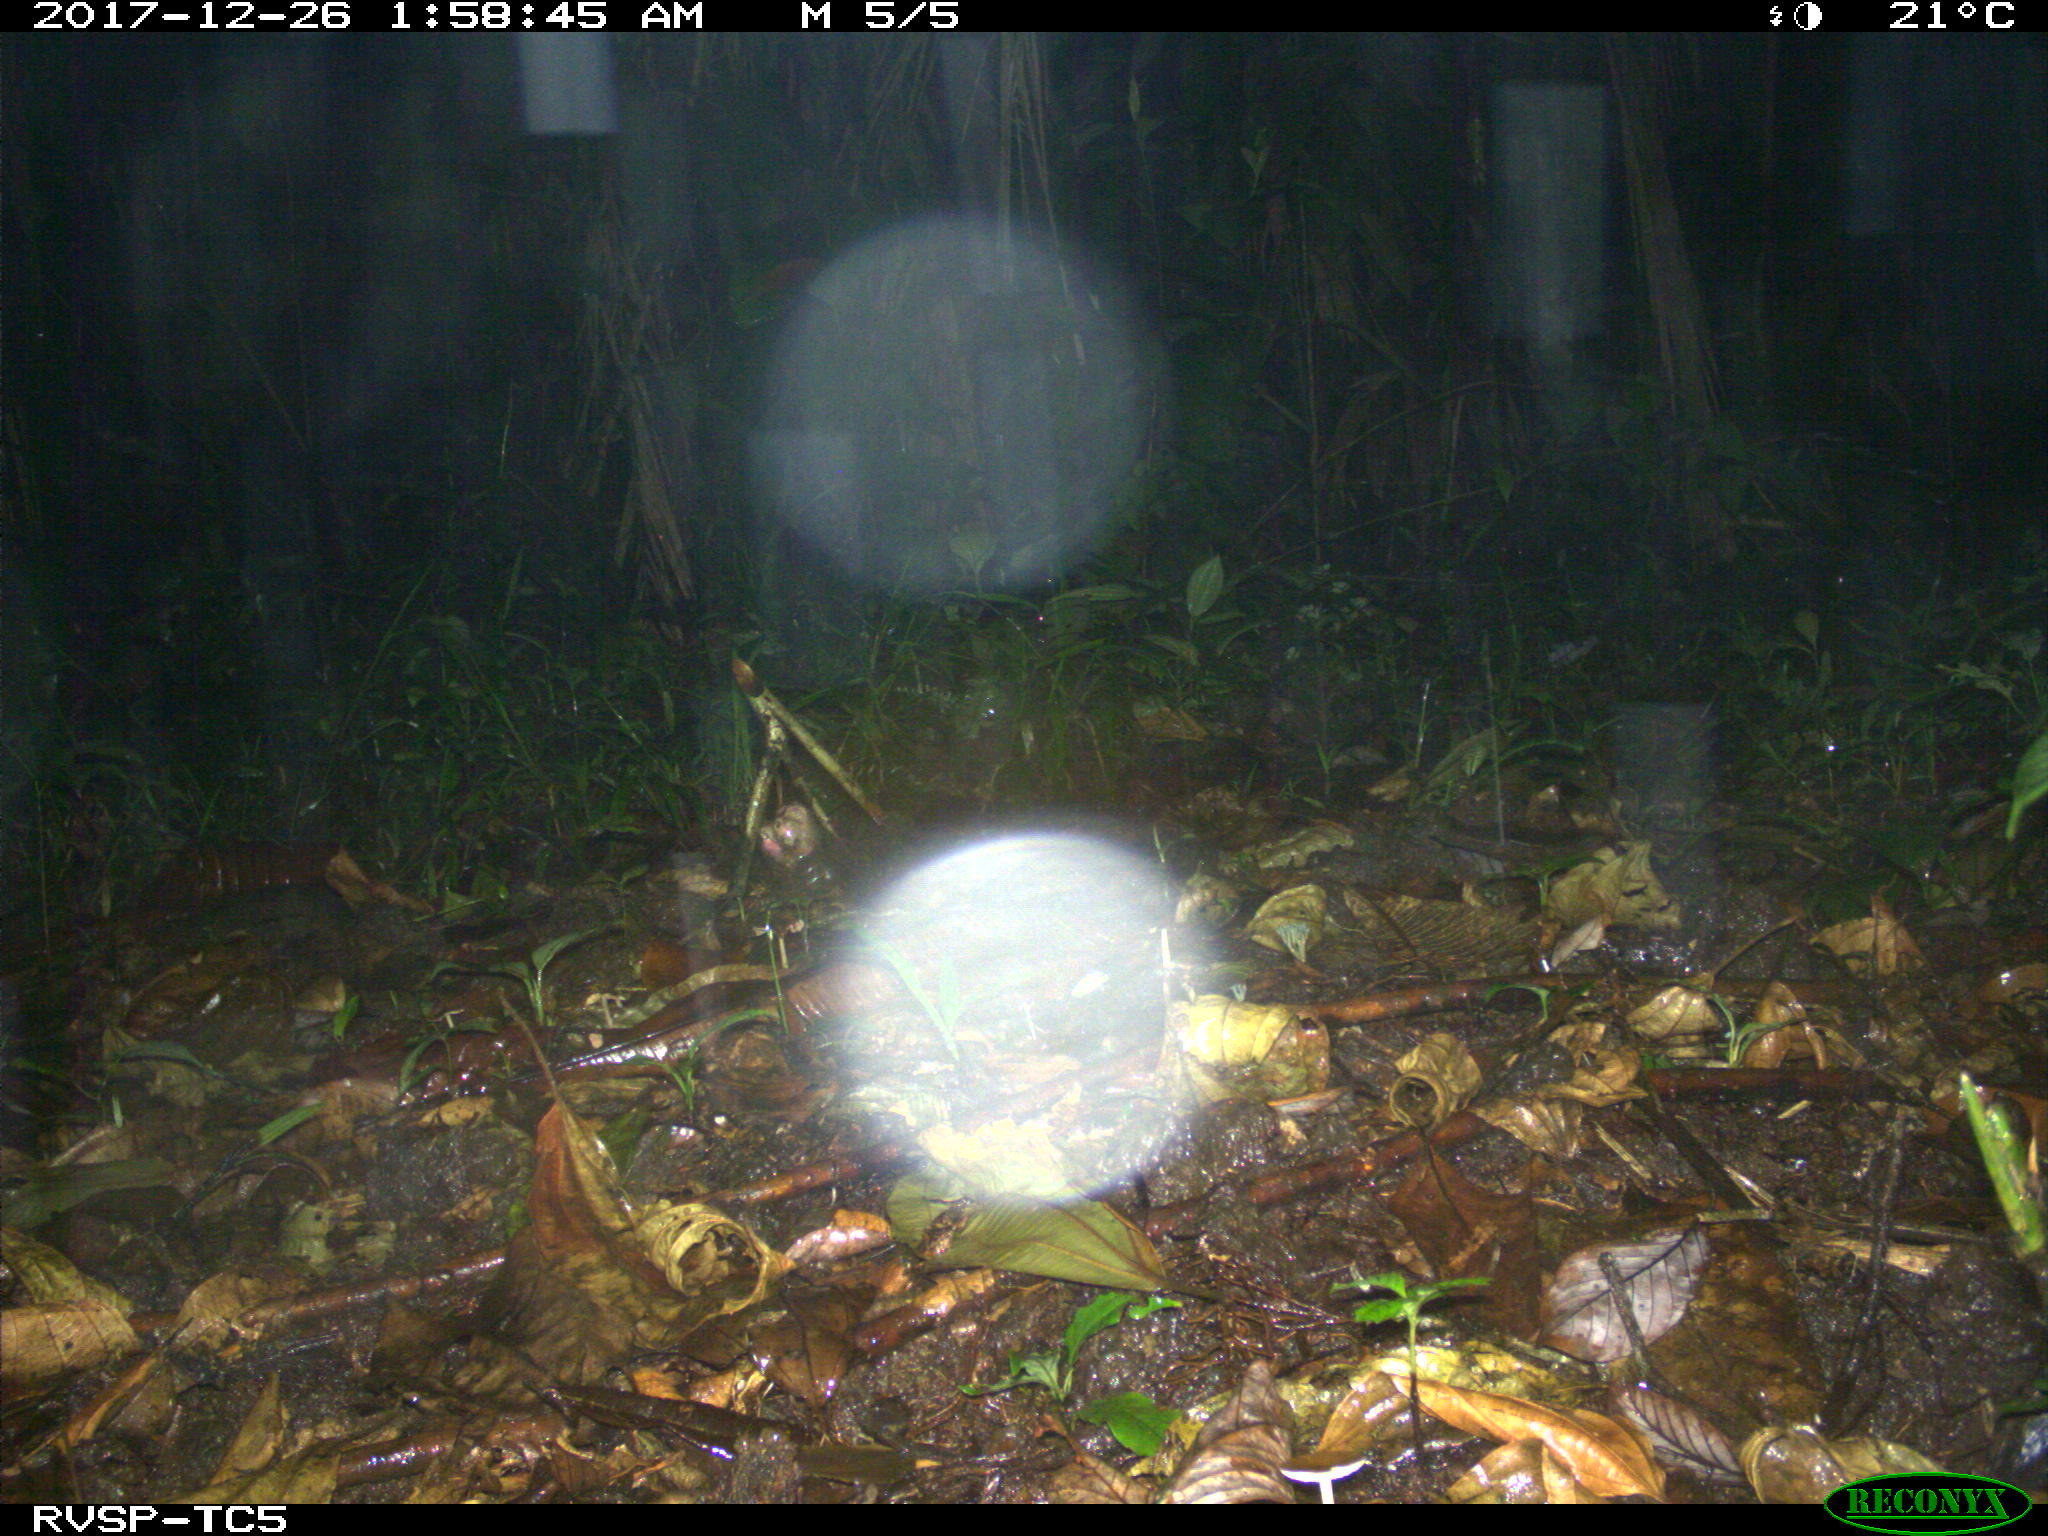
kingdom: Animalia
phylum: Chordata
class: Mammalia
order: Didelphimorphia
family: Didelphidae
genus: Didelphis
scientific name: Didelphis marsupialis
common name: Common opossum
